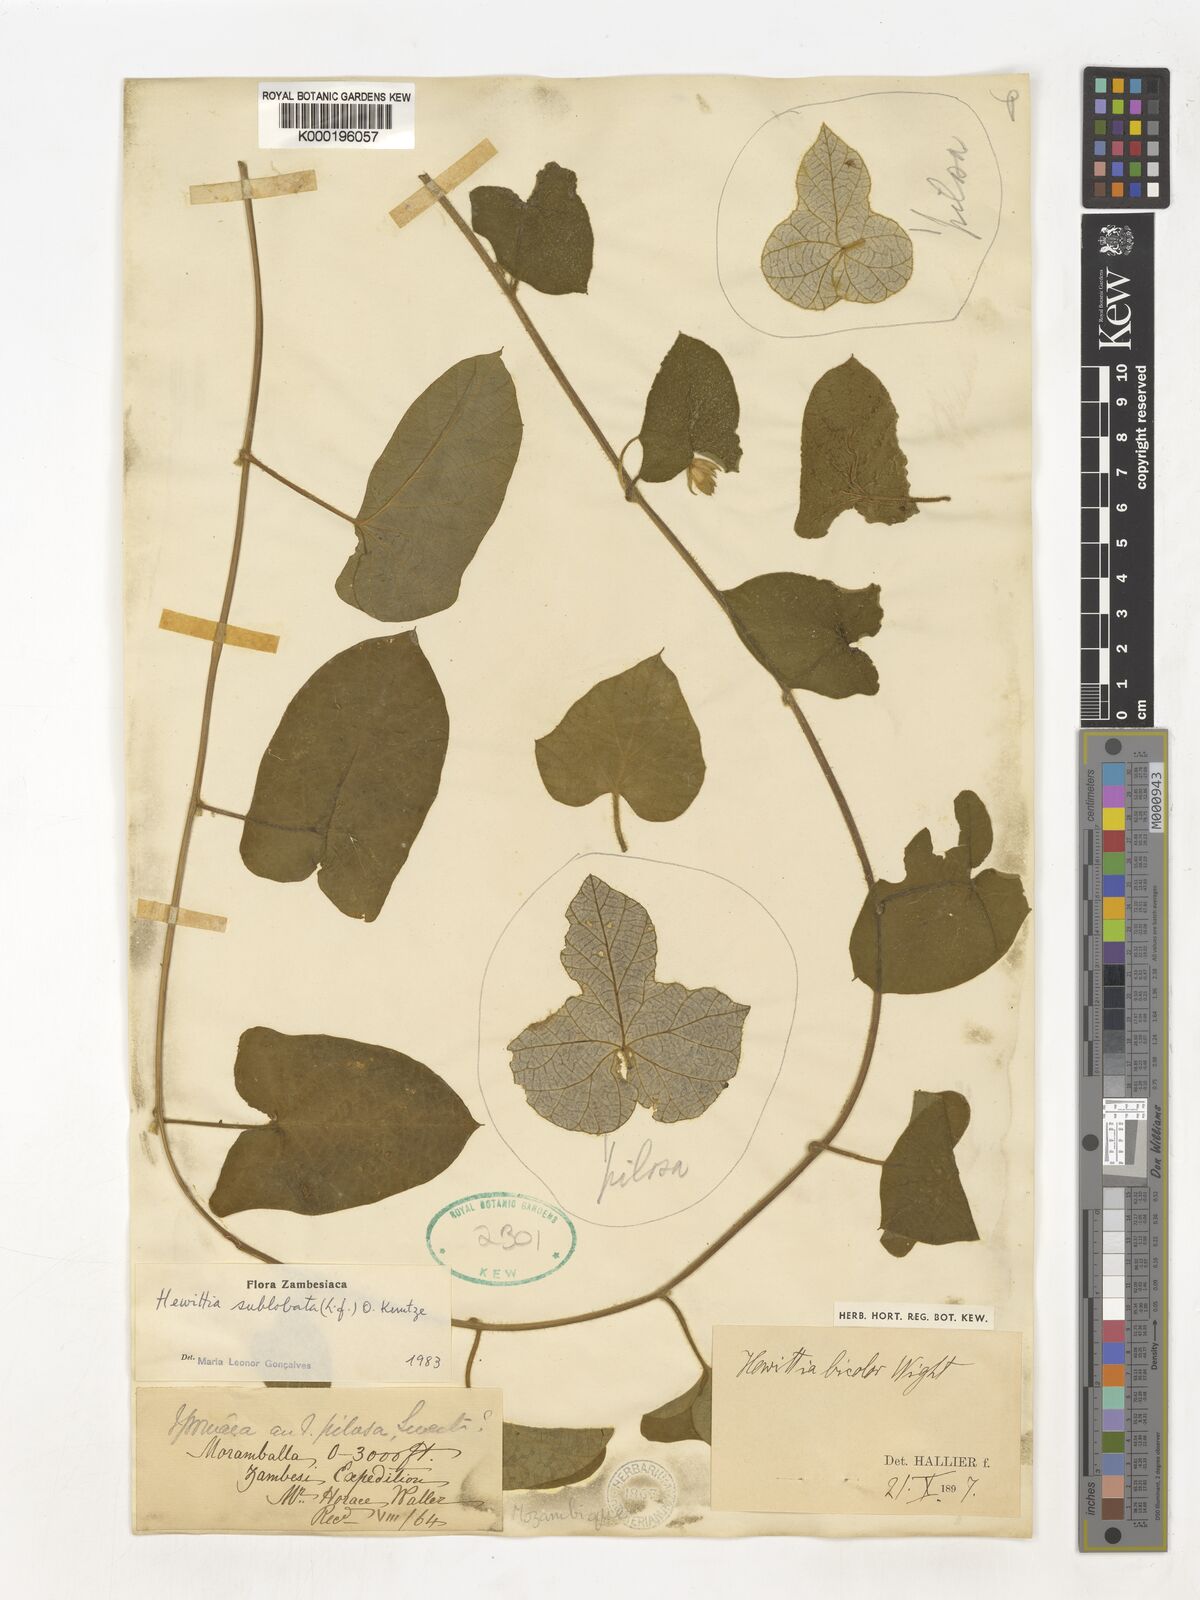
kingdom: Plantae
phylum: Tracheophyta
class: Magnoliopsida
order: Solanales
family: Convolvulaceae
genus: Hewittia
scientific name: Hewittia malabarica
